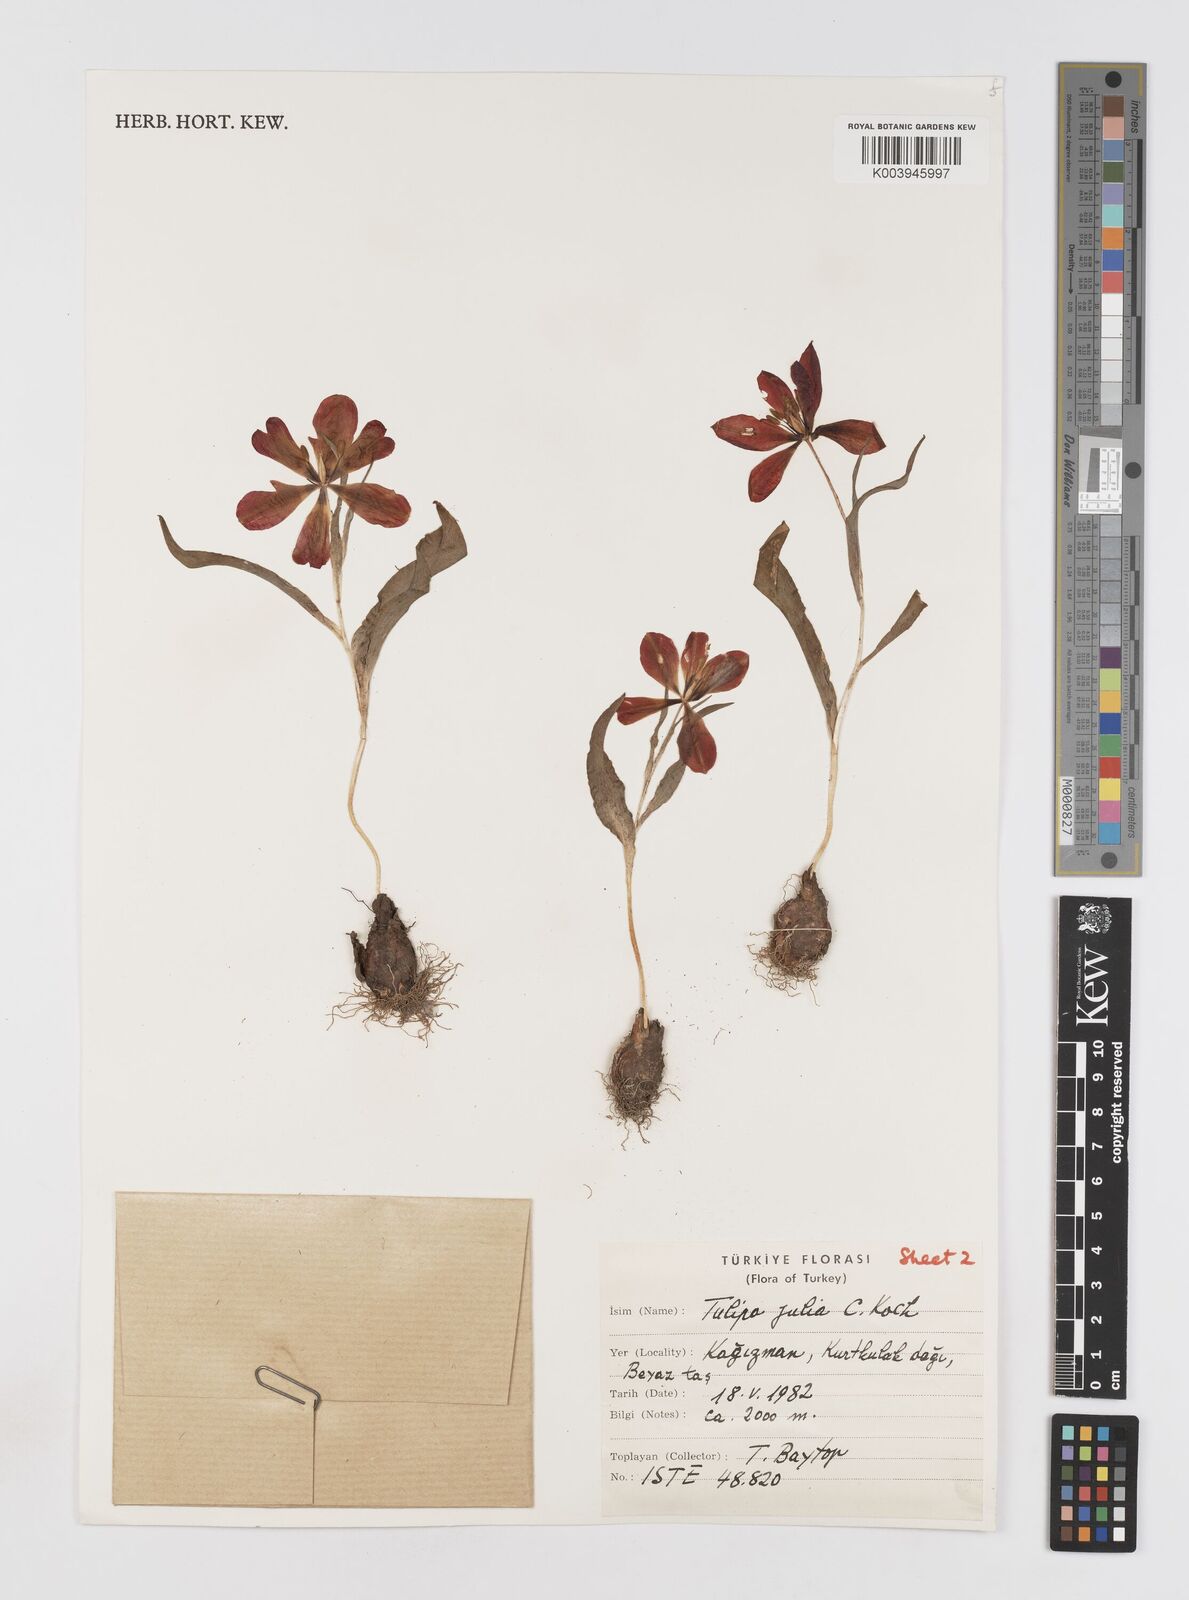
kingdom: Plantae
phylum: Tracheophyta
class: Liliopsida
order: Liliales
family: Liliaceae
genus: Tulipa
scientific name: Tulipa julia
